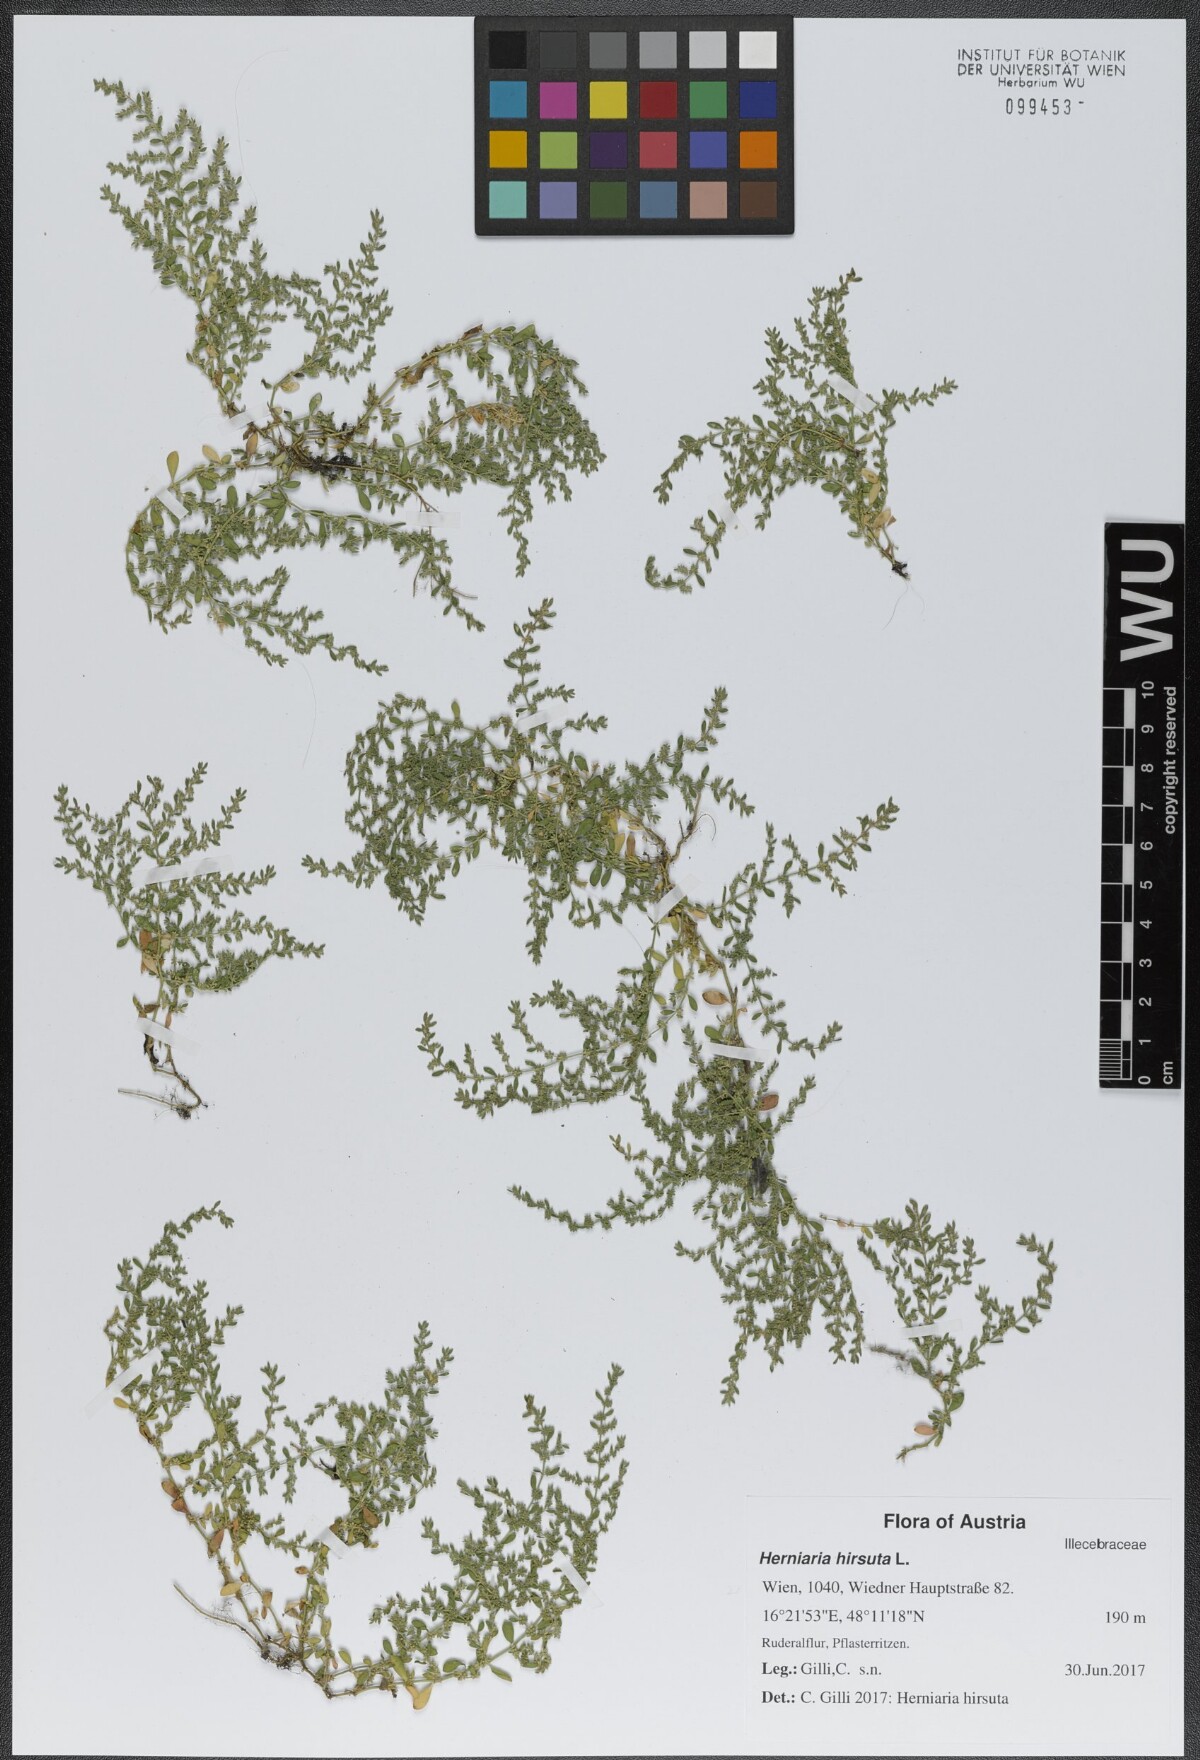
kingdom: Plantae
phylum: Tracheophyta
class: Magnoliopsida
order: Caryophyllales
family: Caryophyllaceae
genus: Herniaria
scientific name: Herniaria hirsuta
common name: Hairy rupturewort
